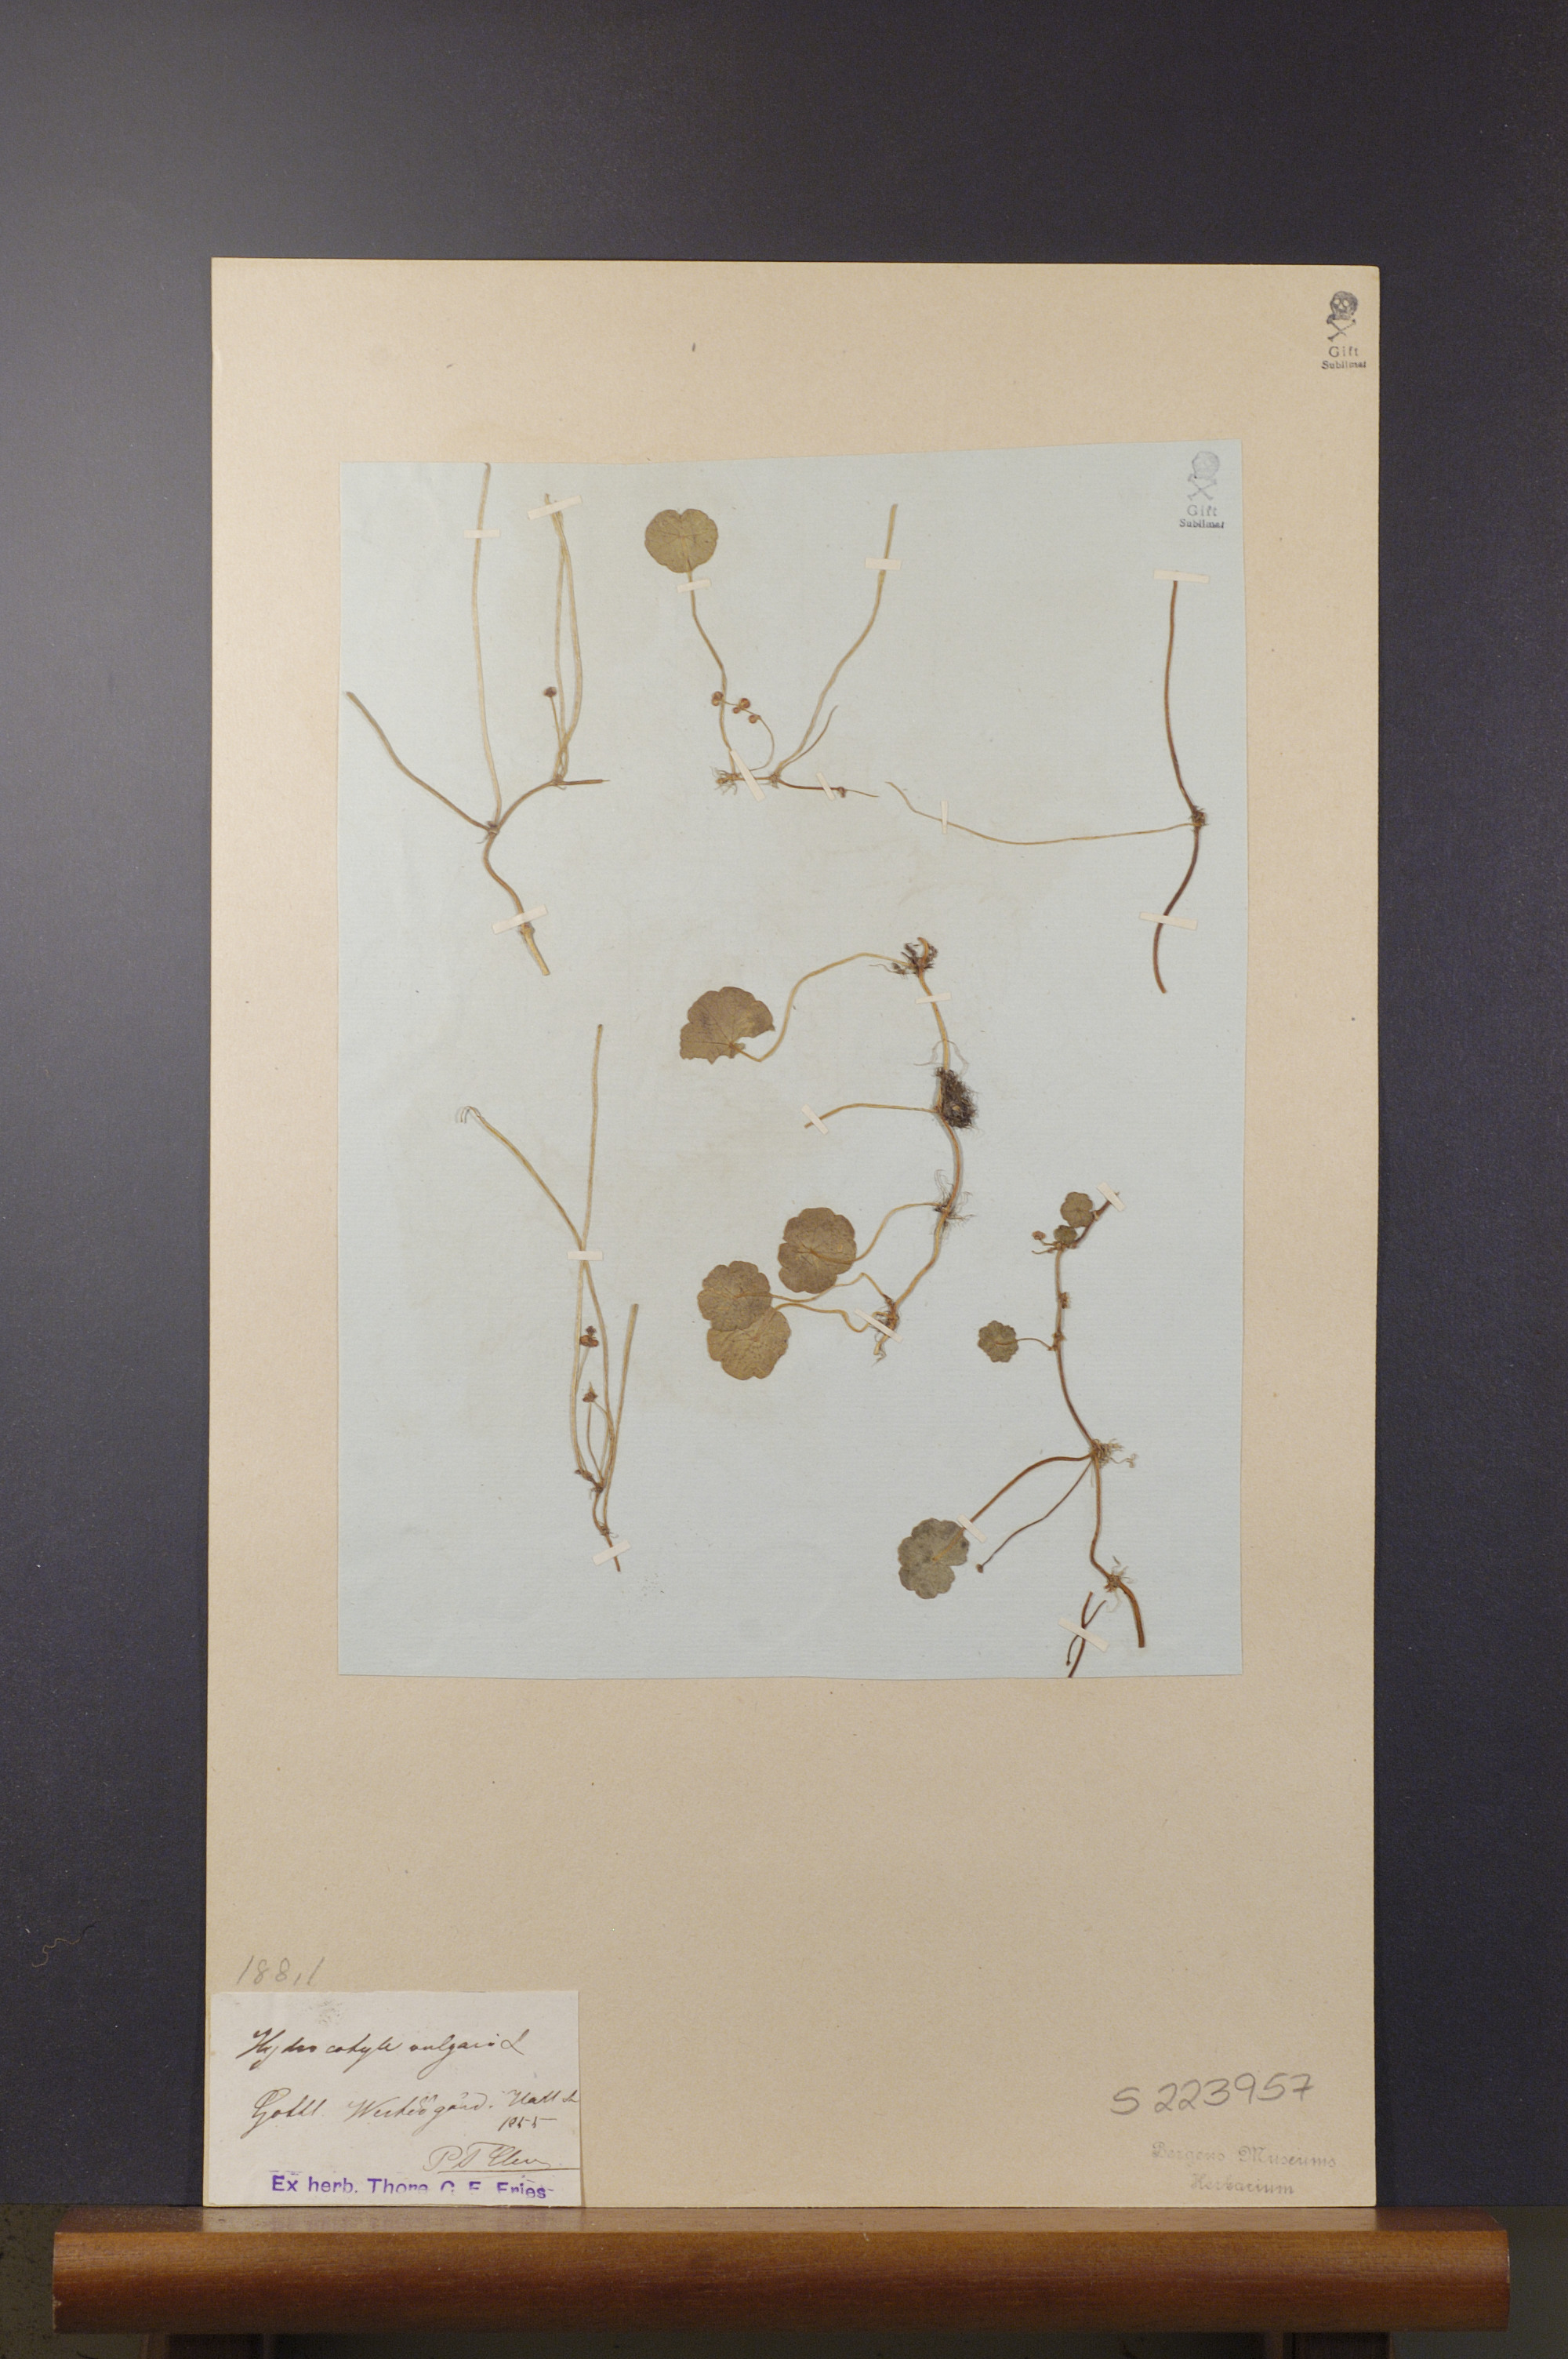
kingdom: Plantae
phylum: Tracheophyta
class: Magnoliopsida
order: Apiales
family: Araliaceae
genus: Hydrocotyle
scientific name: Hydrocotyle vulgaris
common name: Marsh pennywort
